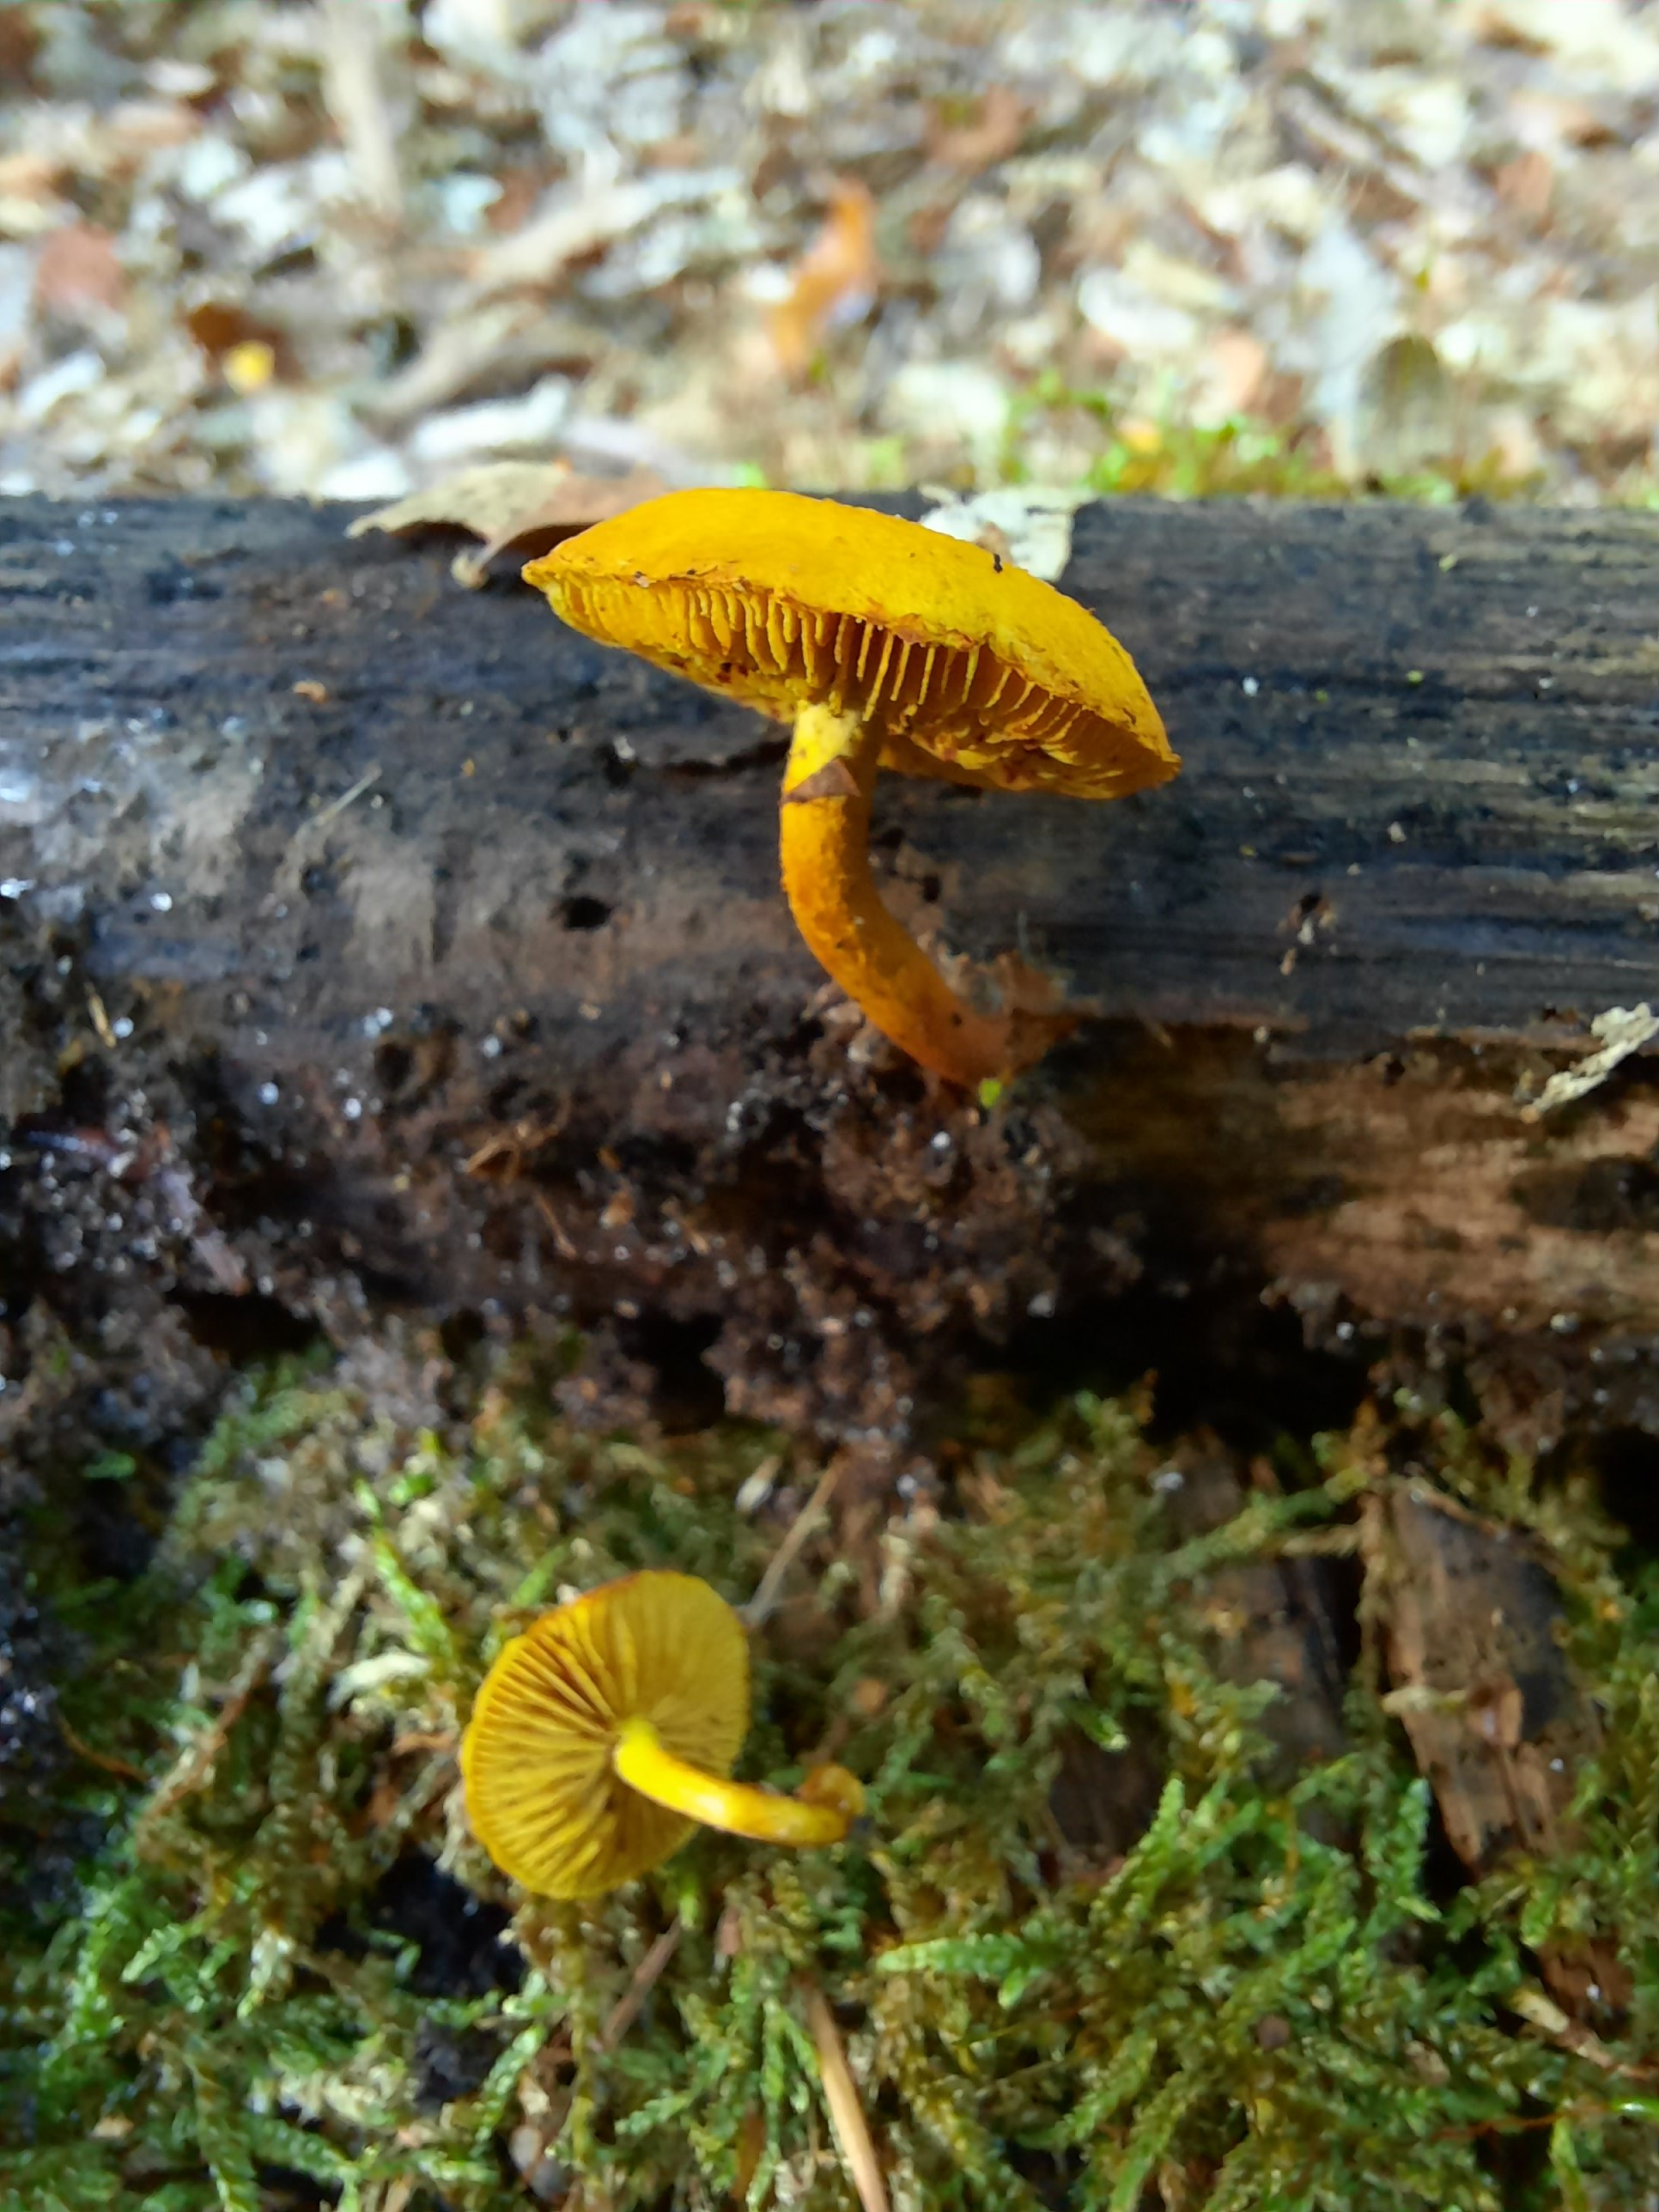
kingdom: Fungi
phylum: Basidiomycota
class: Agaricomycetes
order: Agaricales
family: Strophariaceae
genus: Pholiota
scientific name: Pholiota tuberculosa
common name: finskællet skælhat
